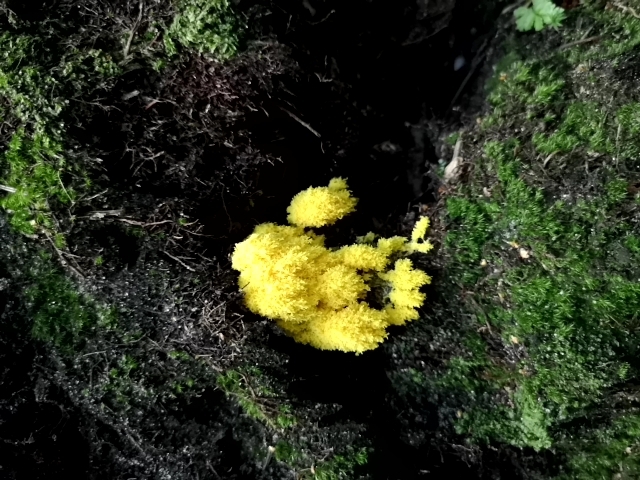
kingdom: Protozoa
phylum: Mycetozoa
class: Myxomycetes
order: Physarales
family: Physaraceae
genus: Fuligo
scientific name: Fuligo septica
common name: gul troldsmør
